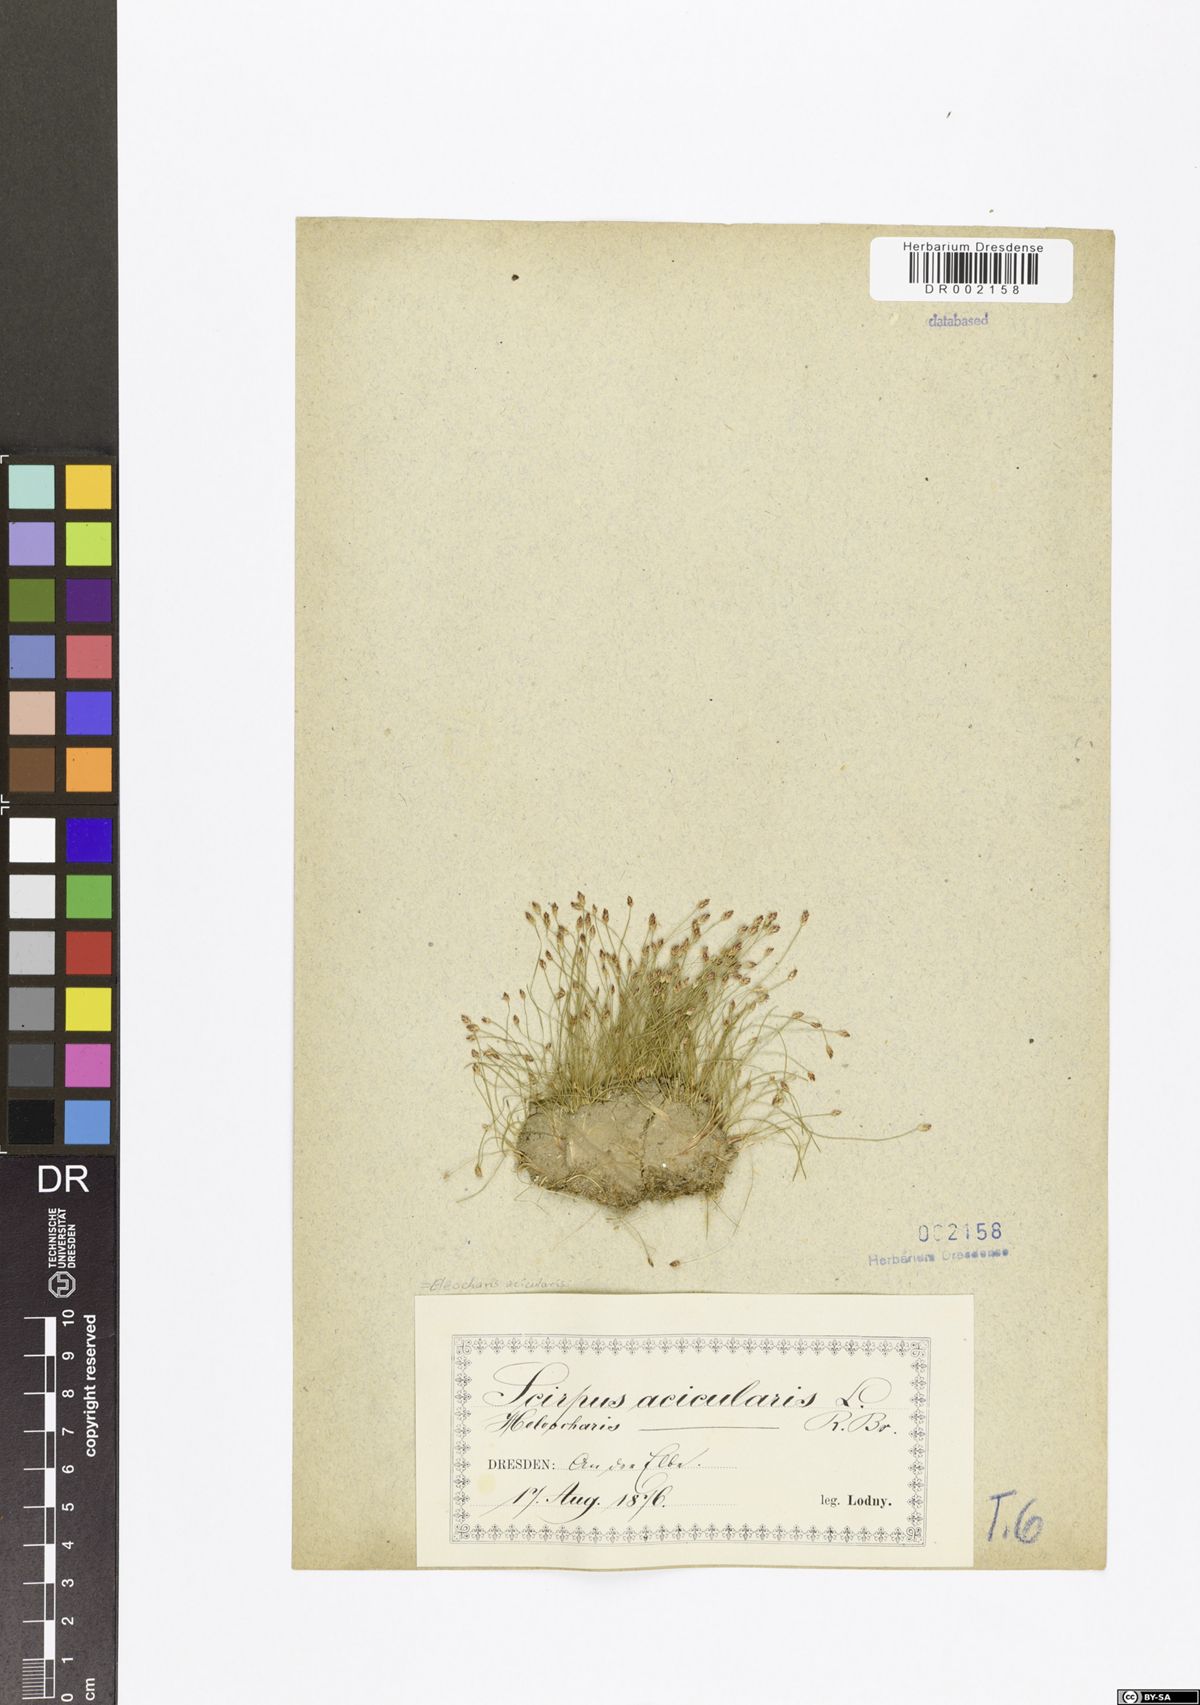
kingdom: Plantae
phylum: Tracheophyta
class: Liliopsida
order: Poales
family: Cyperaceae
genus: Eleocharis
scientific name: Eleocharis acicularis
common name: Needle spike-rush
